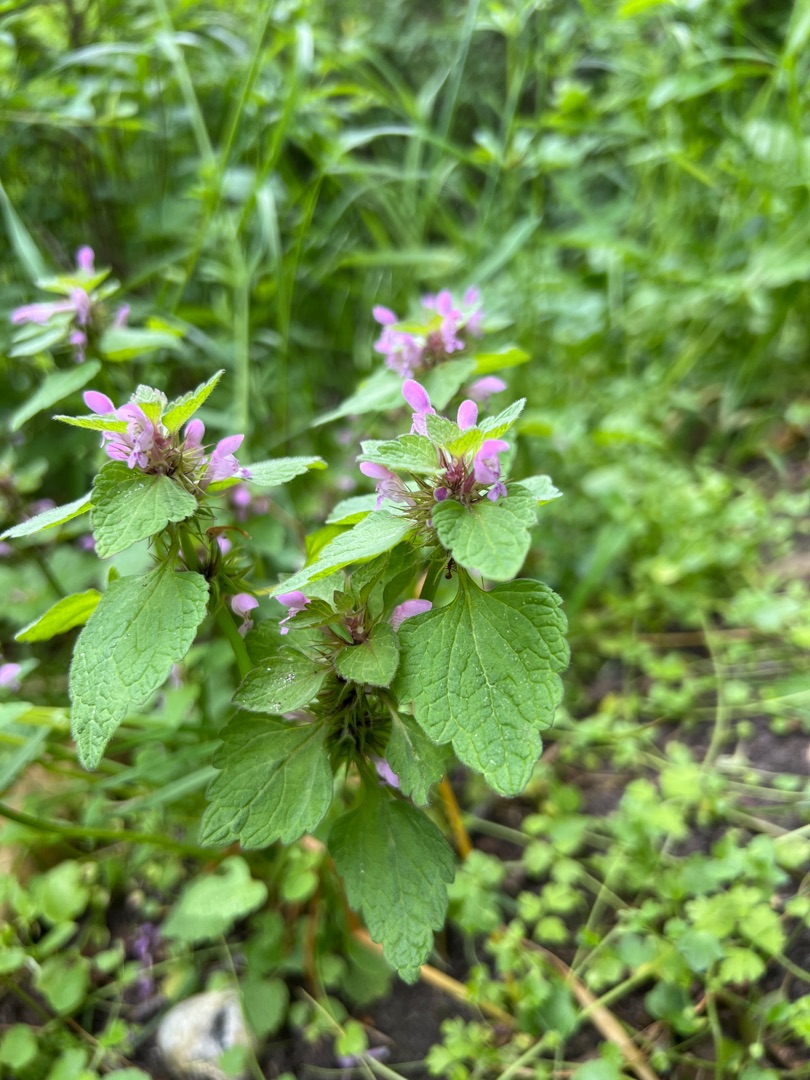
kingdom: Plantae
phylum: Tracheophyta
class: Magnoliopsida
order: Lamiales
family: Lamiaceae
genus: Lamium
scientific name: Lamium purpureum
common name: Rød tvetand
